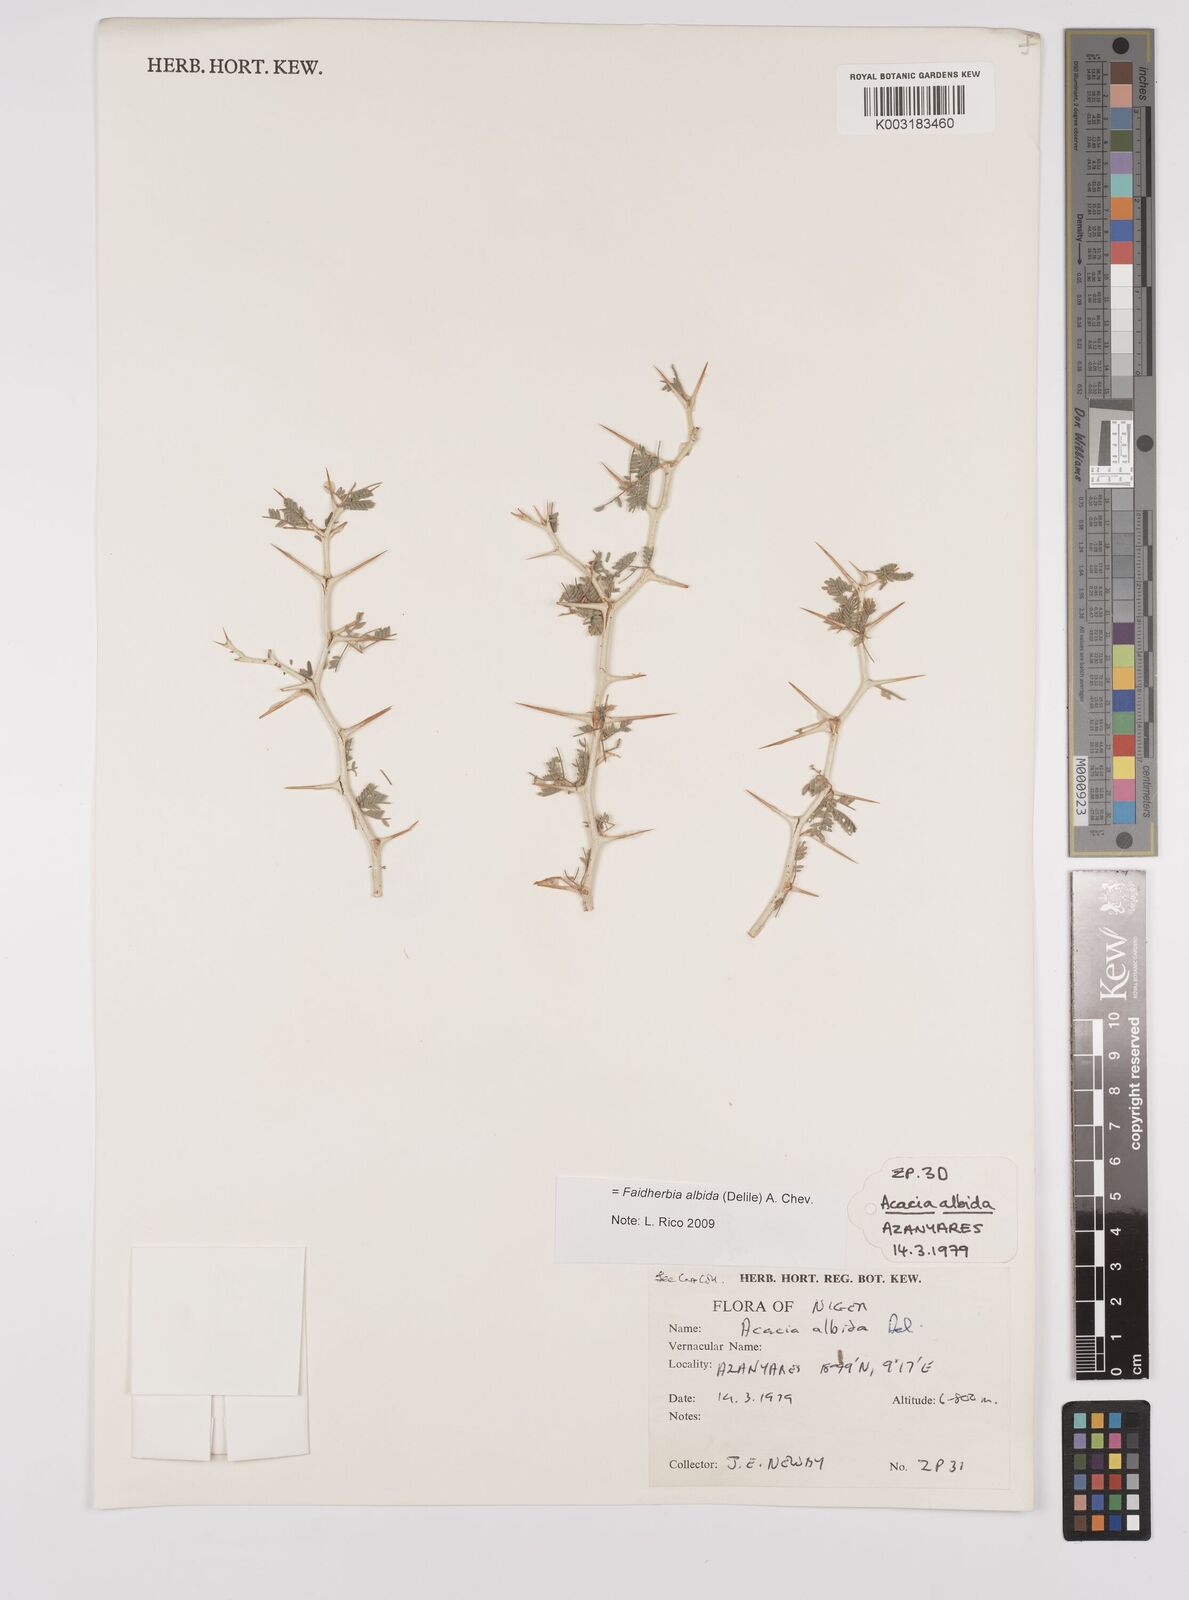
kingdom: Plantae
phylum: Tracheophyta
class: Magnoliopsida
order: Fabales
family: Fabaceae
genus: Faidherbia
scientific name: Faidherbia albida
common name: Anatree
